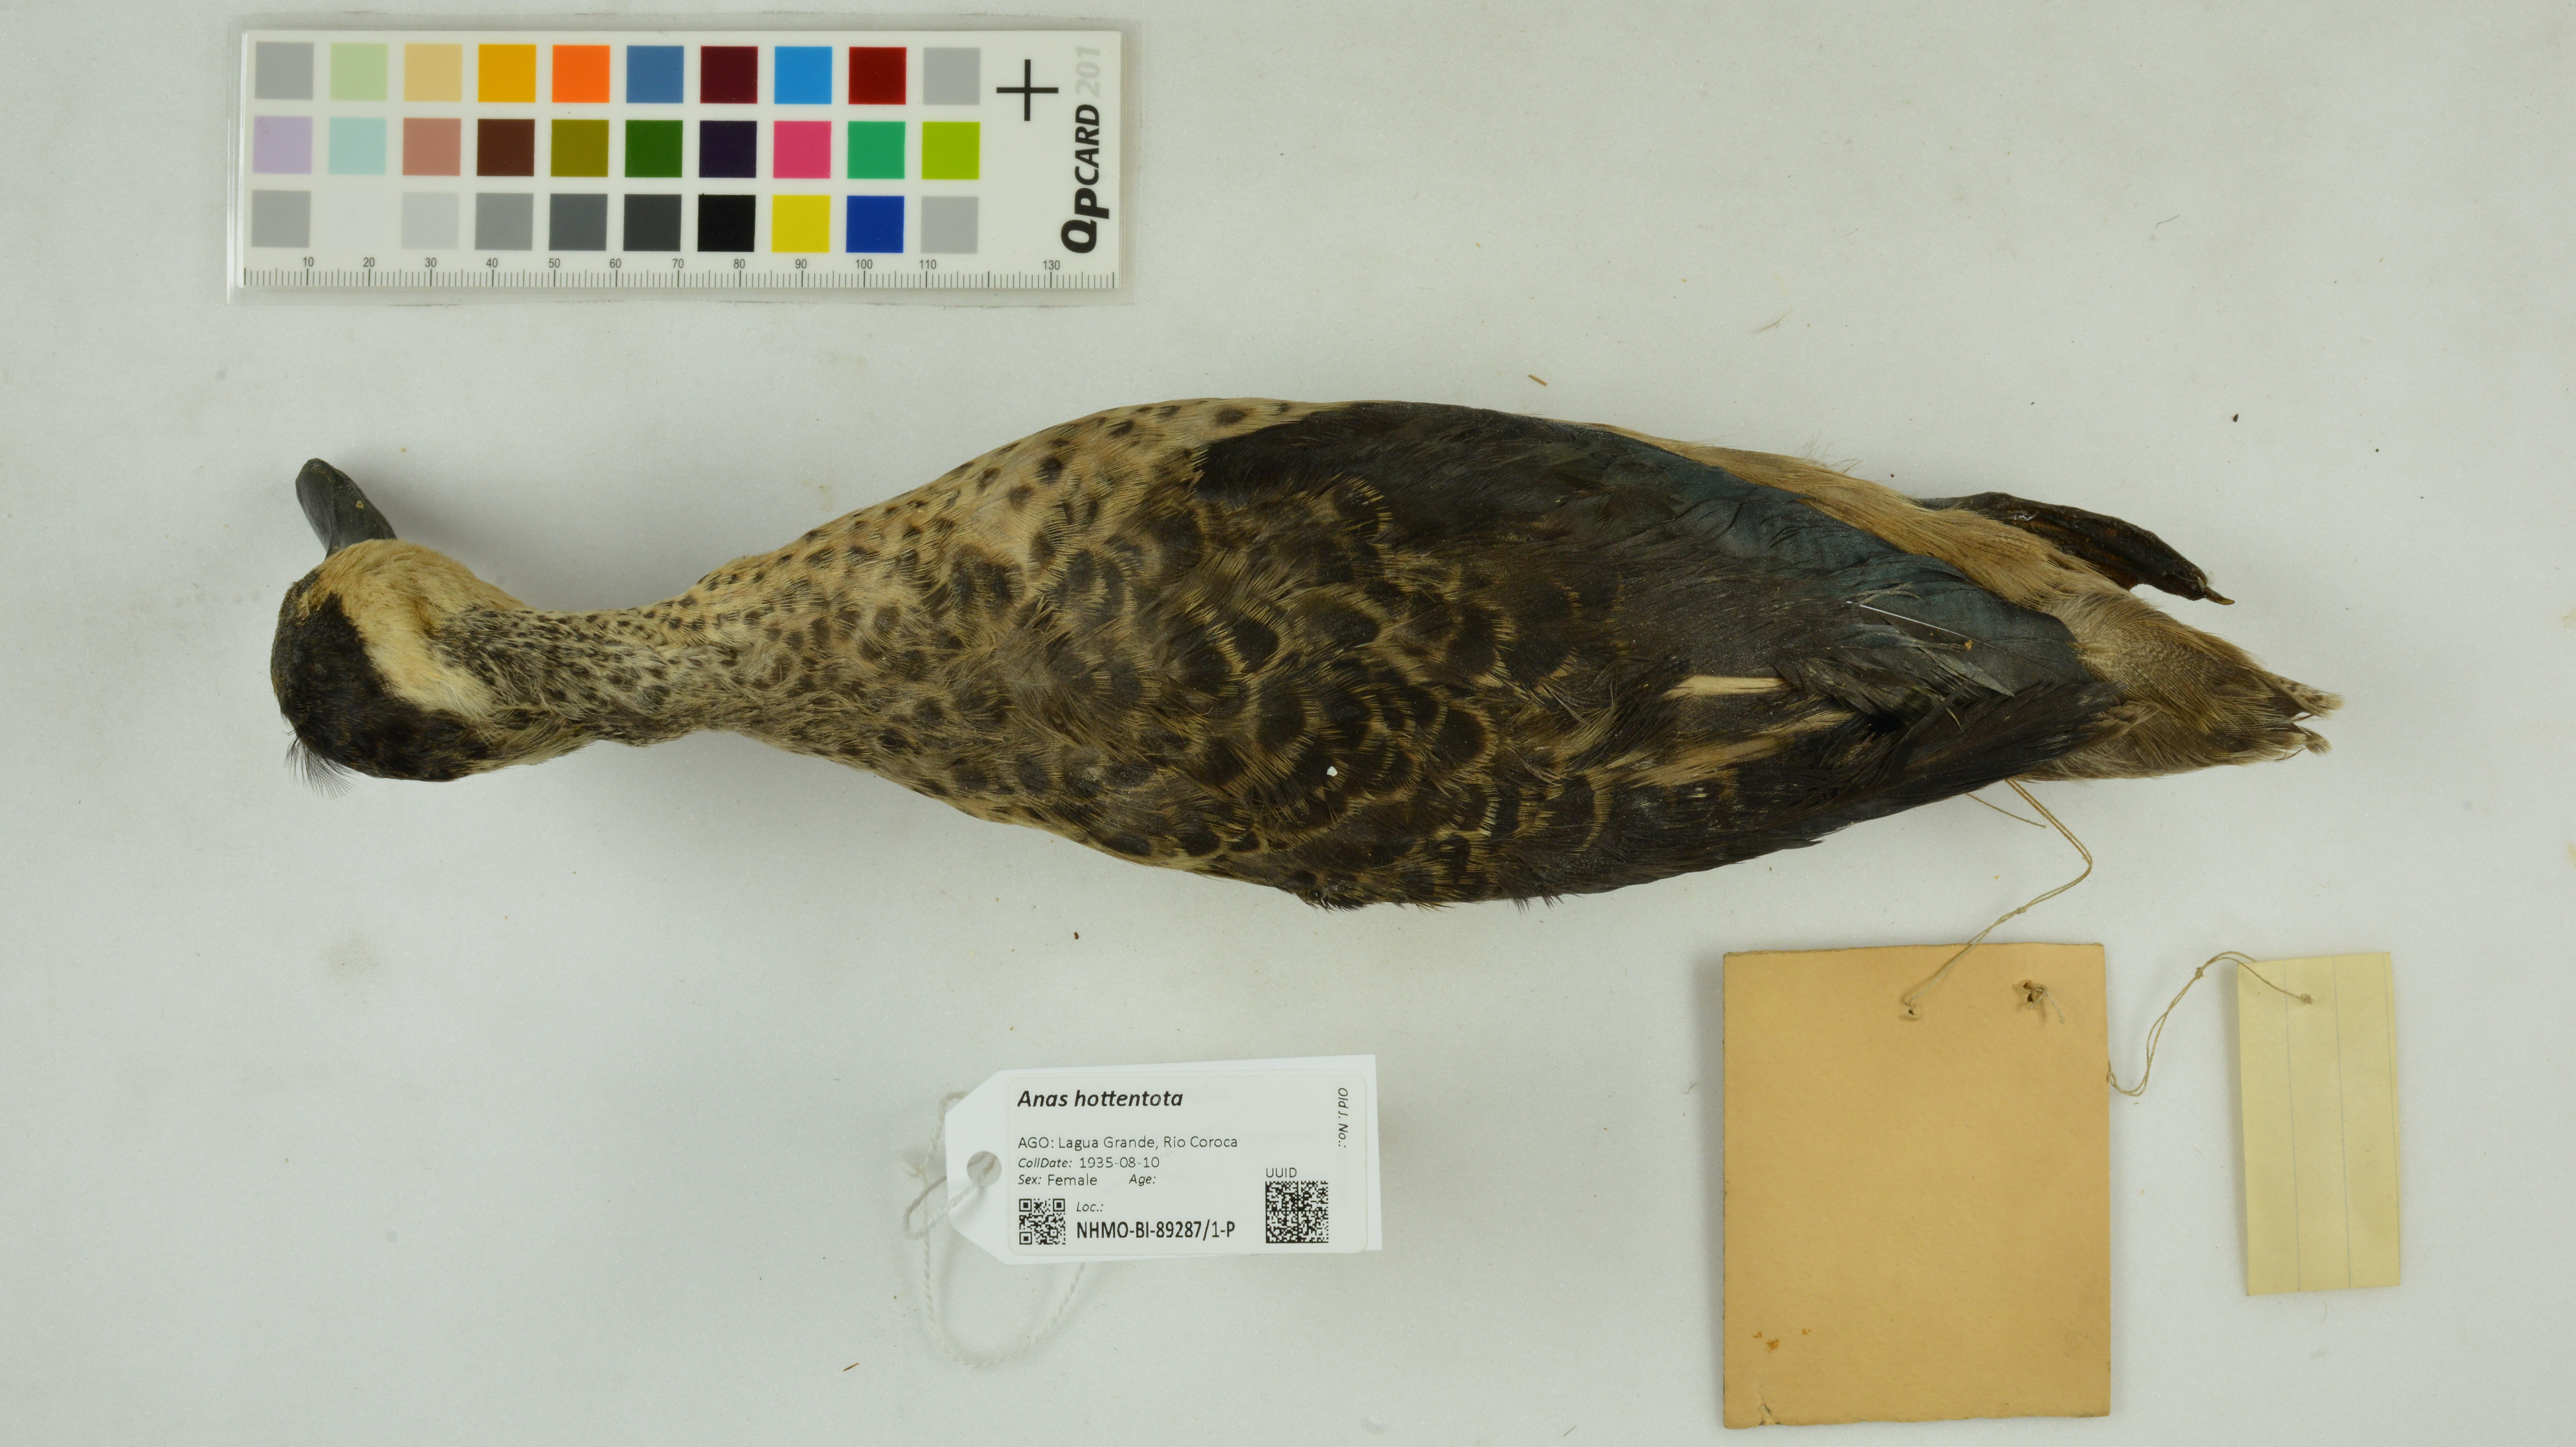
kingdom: Animalia
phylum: Chordata
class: Aves
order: Anseriformes
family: Anatidae
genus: Spatula
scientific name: Spatula hottentota
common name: Blue-billed teal
